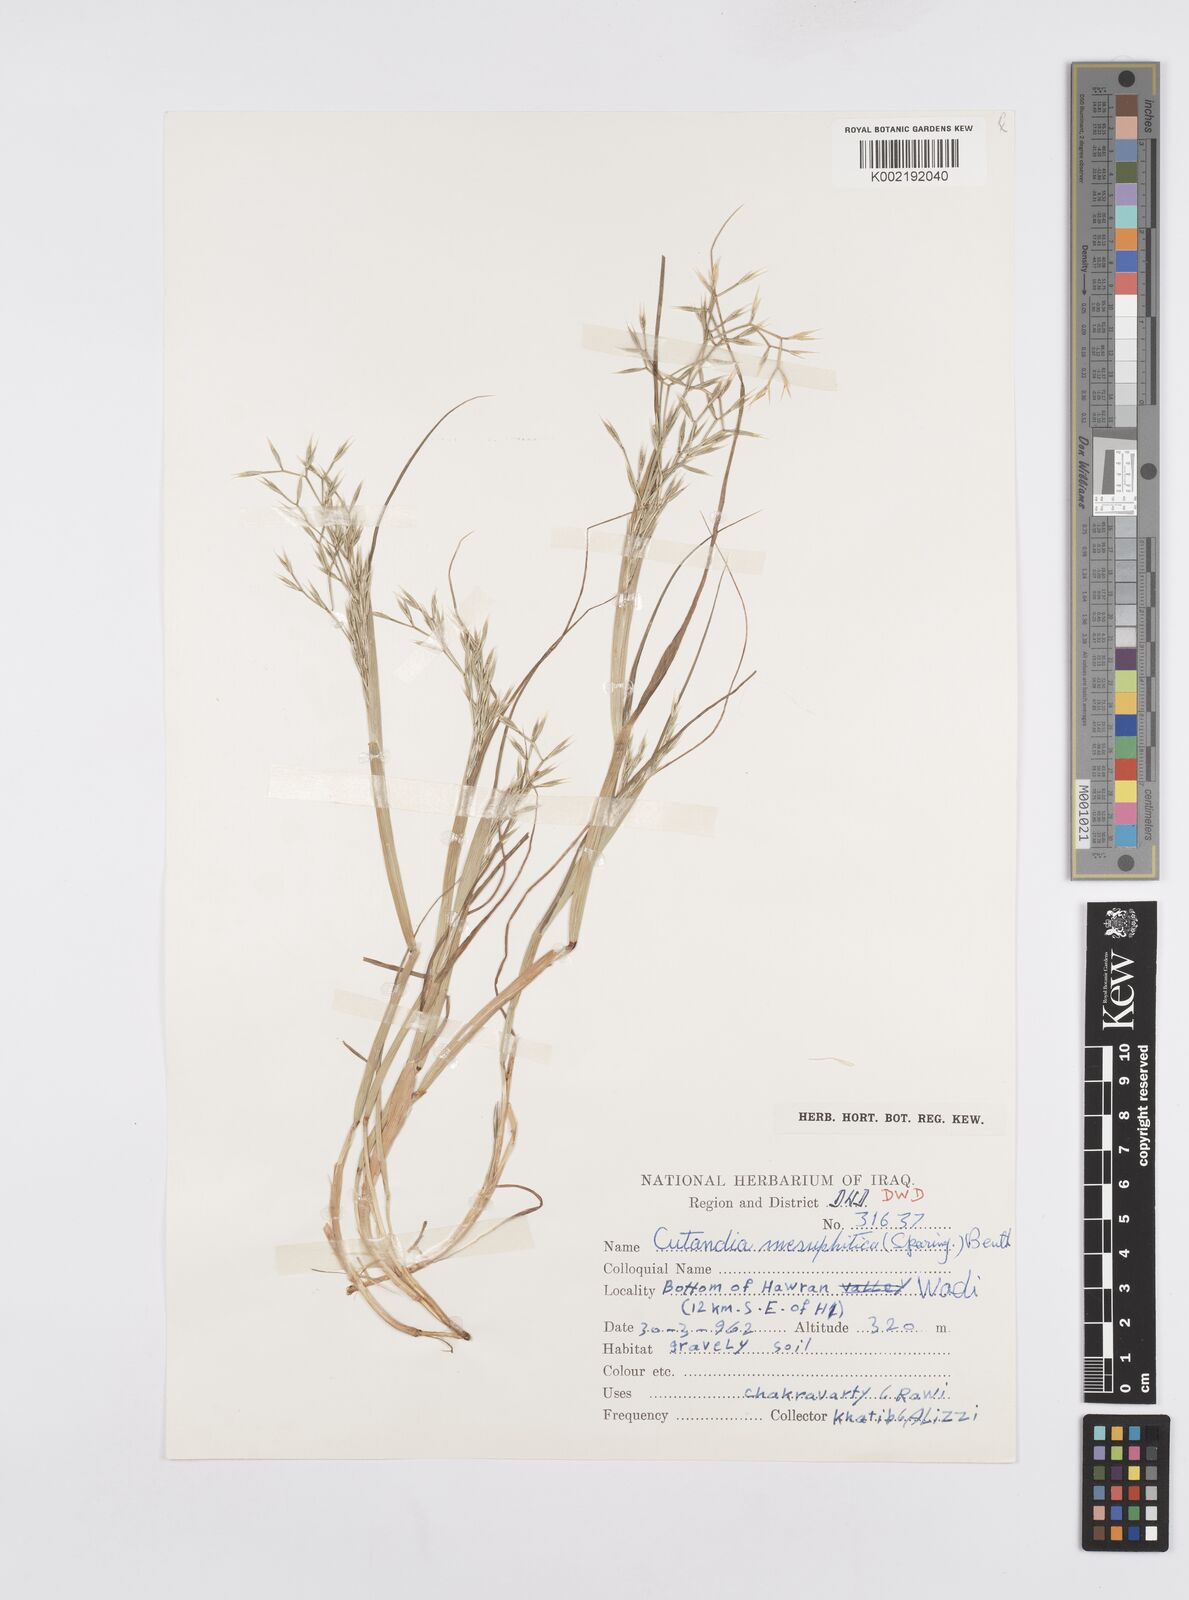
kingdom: Plantae
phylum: Tracheophyta
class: Liliopsida
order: Poales
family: Poaceae
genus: Cutandia
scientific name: Cutandia memphitica
